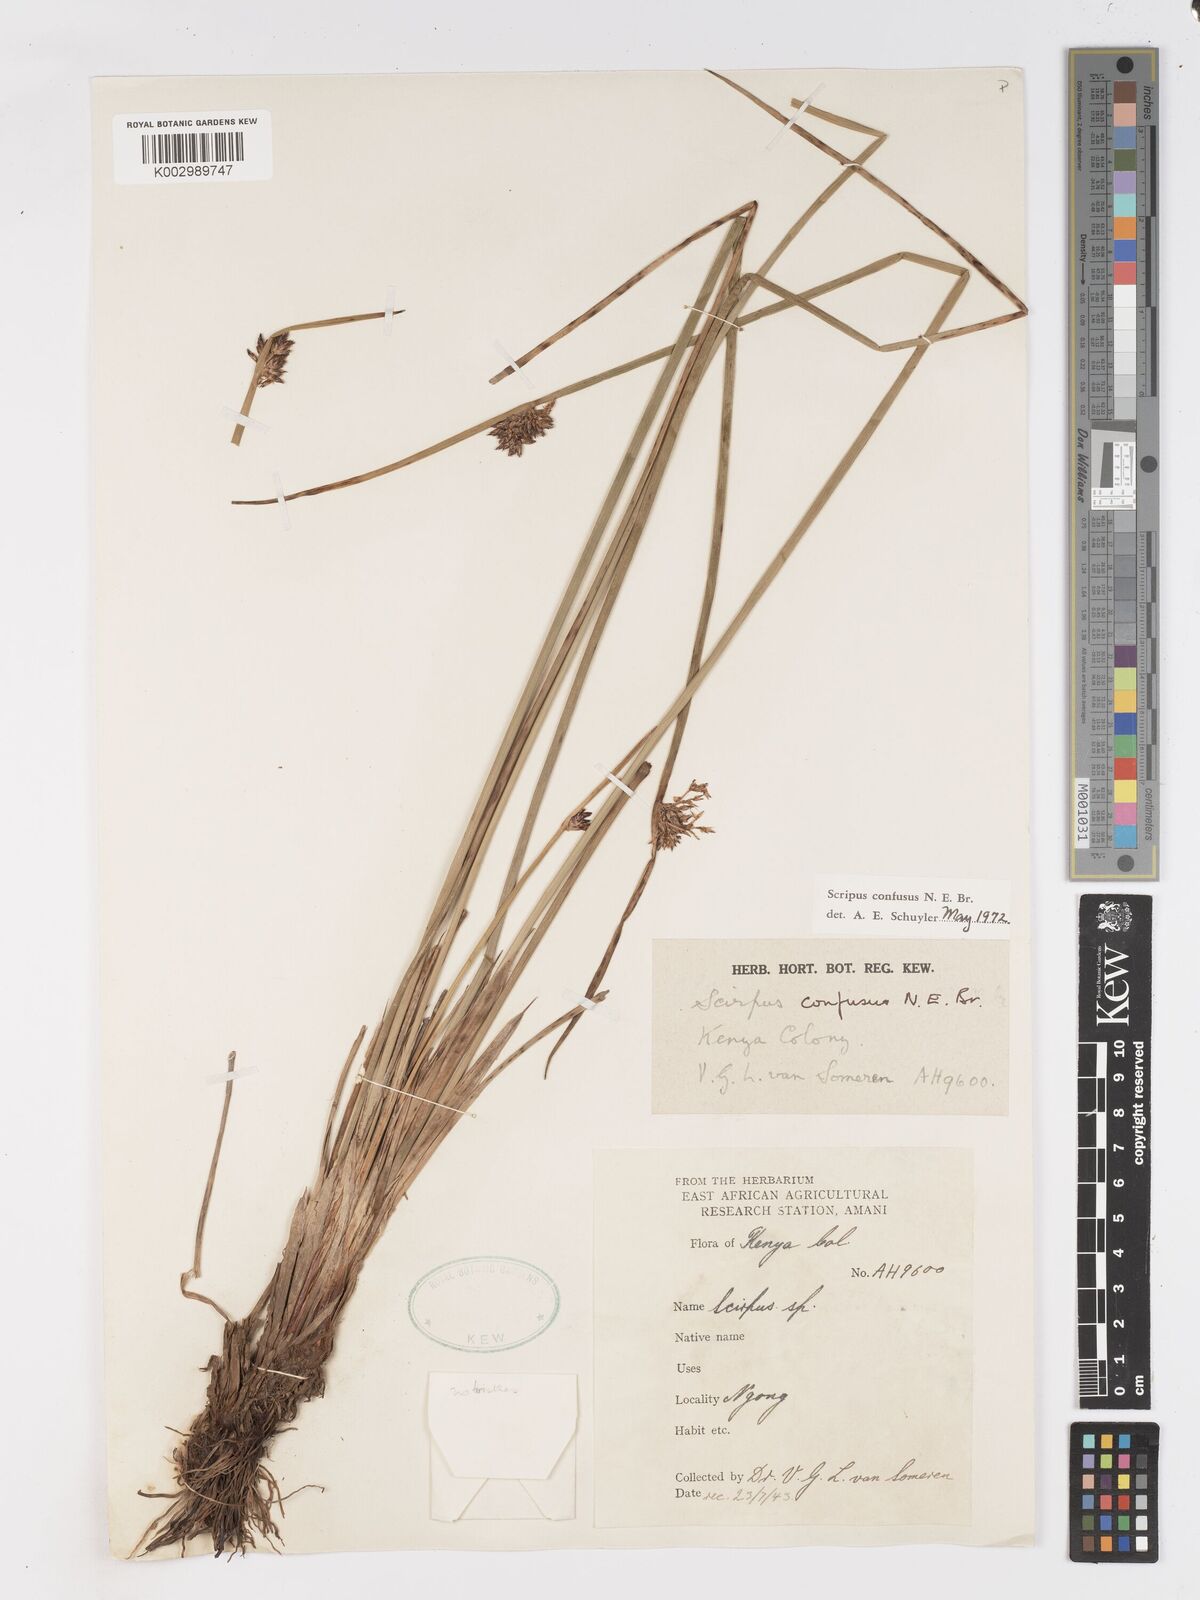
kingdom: Plantae
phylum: Tracheophyta
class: Liliopsida
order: Poales
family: Cyperaceae
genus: Schoenoplectiella
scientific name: Schoenoplectiella confusa
